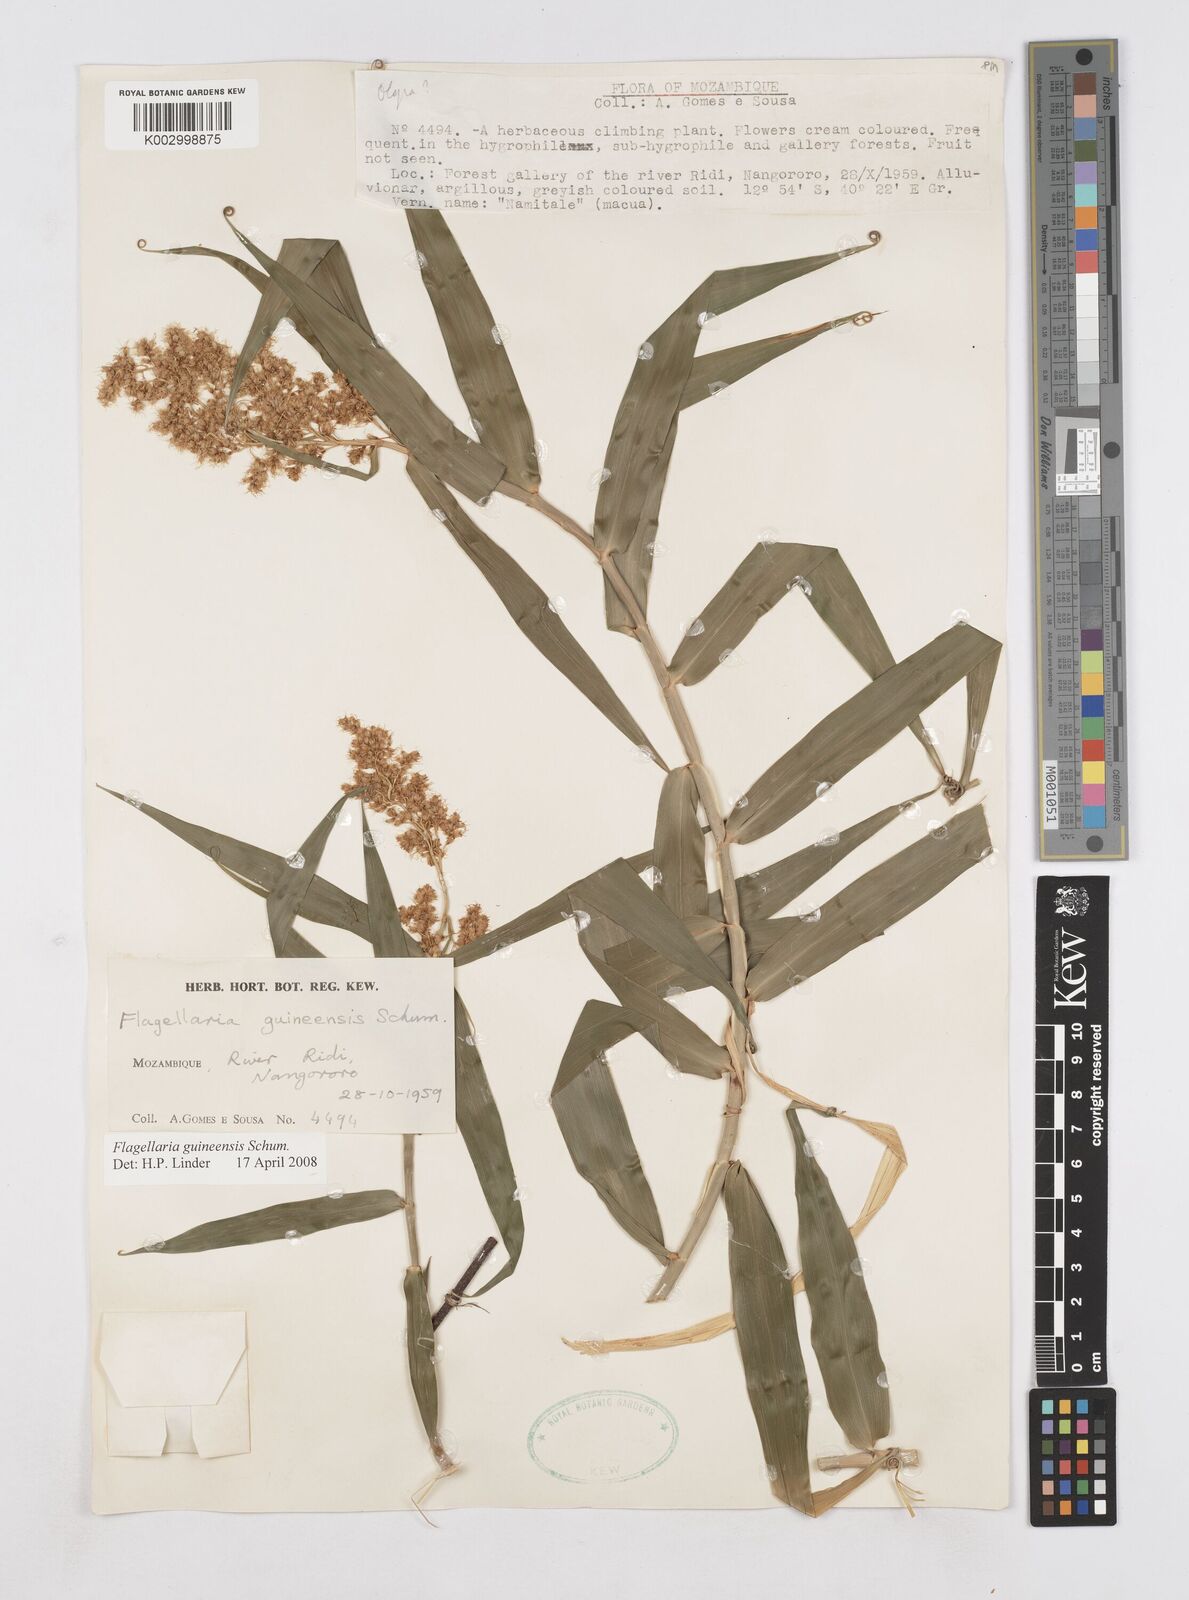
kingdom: Plantae
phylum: Tracheophyta
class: Liliopsida
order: Poales
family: Flagellariaceae
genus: Flagellaria
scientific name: Flagellaria guineensis
